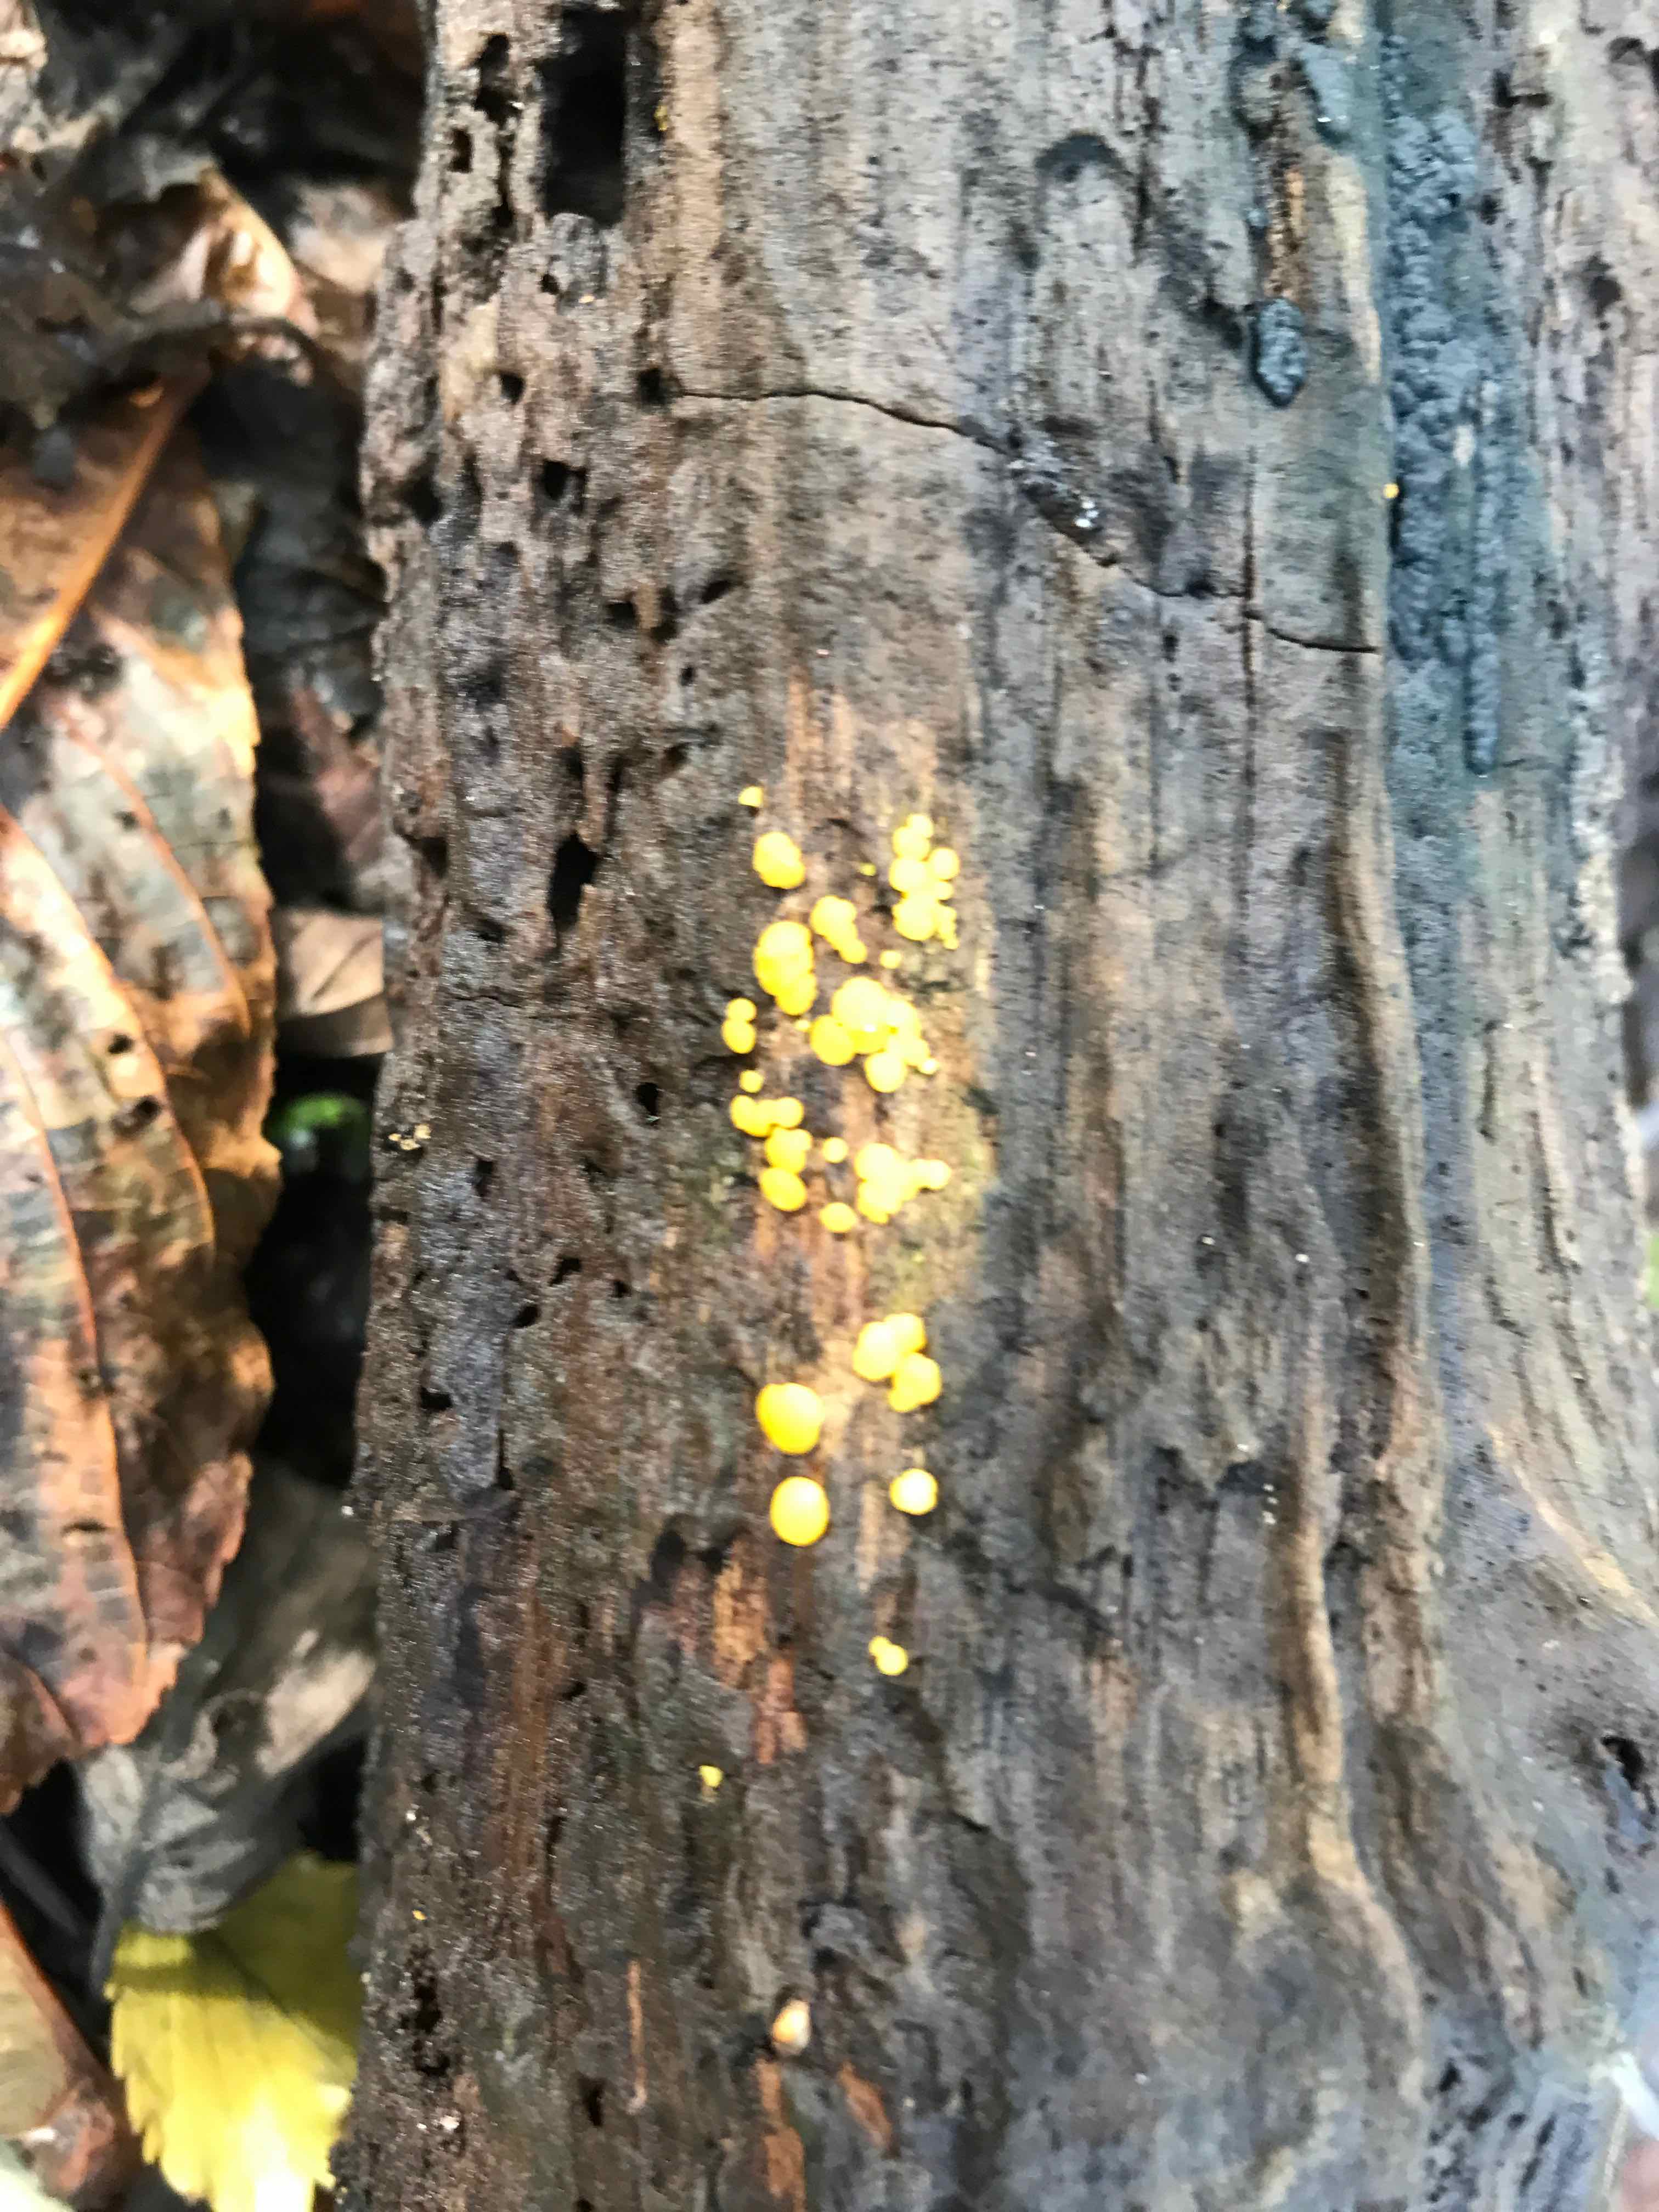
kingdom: Fungi
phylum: Ascomycota
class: Leotiomycetes
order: Helotiales
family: Pezizellaceae
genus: Calycina
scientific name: Calycina citrina
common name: almindelig gulskive
